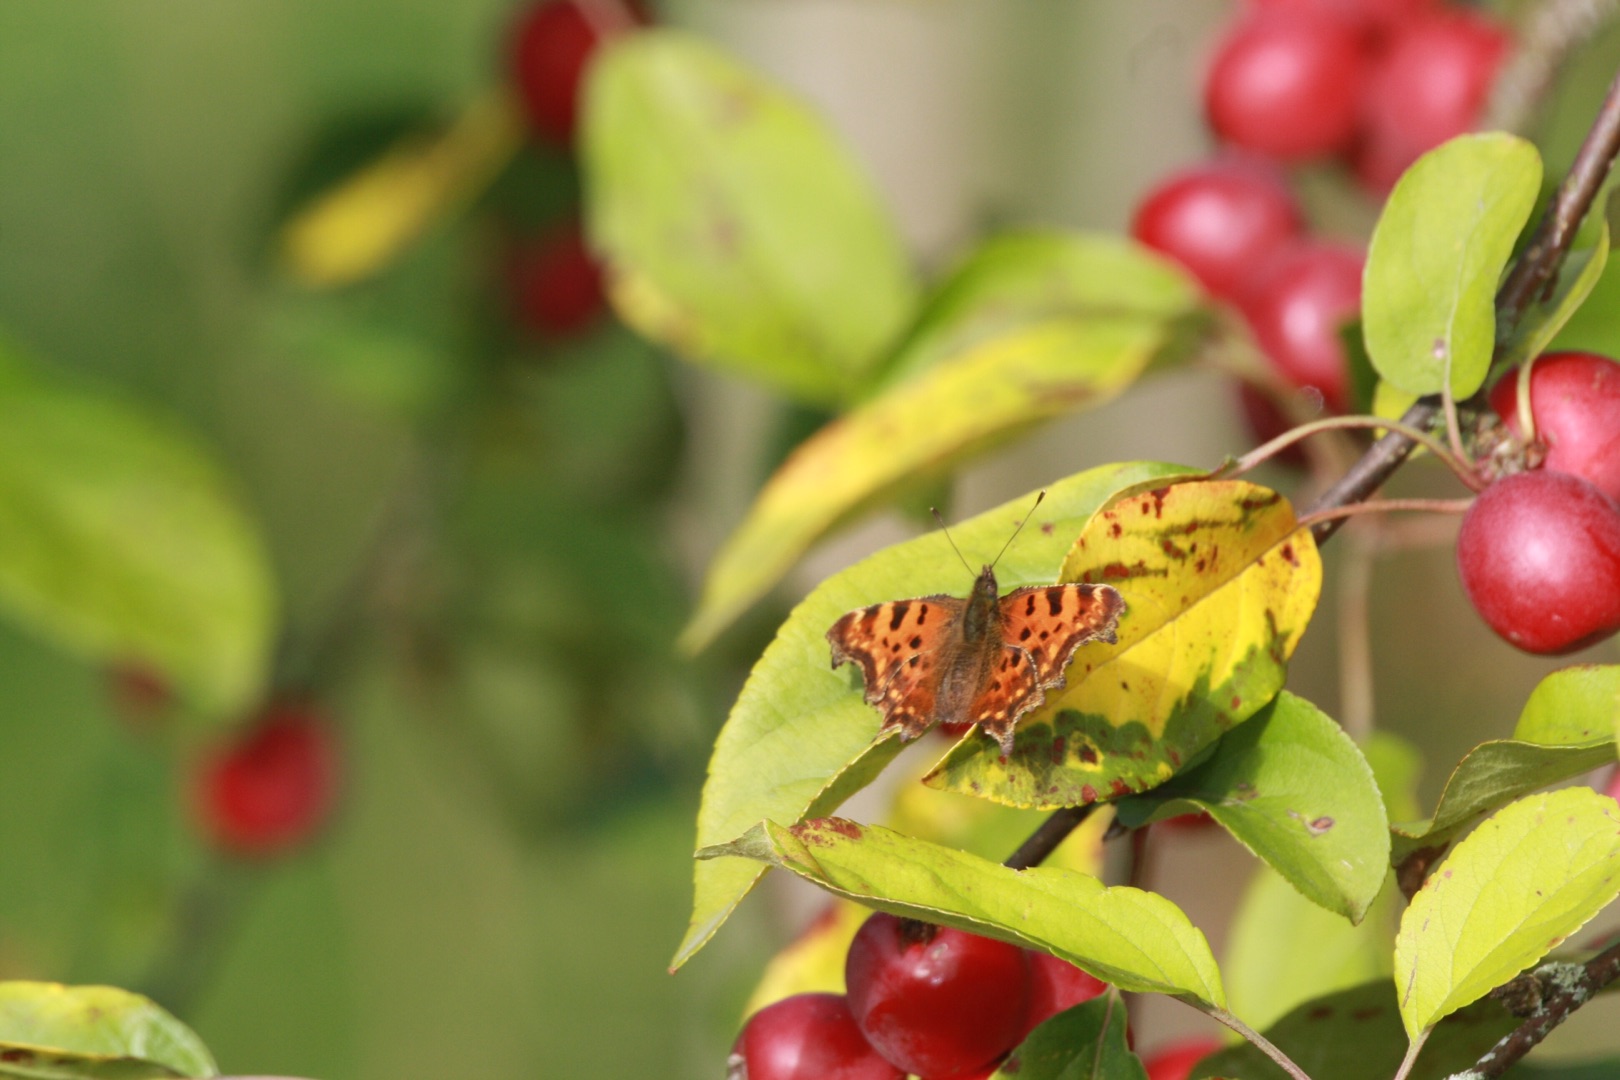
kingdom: Animalia
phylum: Arthropoda
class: Insecta
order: Lepidoptera
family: Nymphalidae
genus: Polygonia
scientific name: Polygonia c-album
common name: Det hvide C
